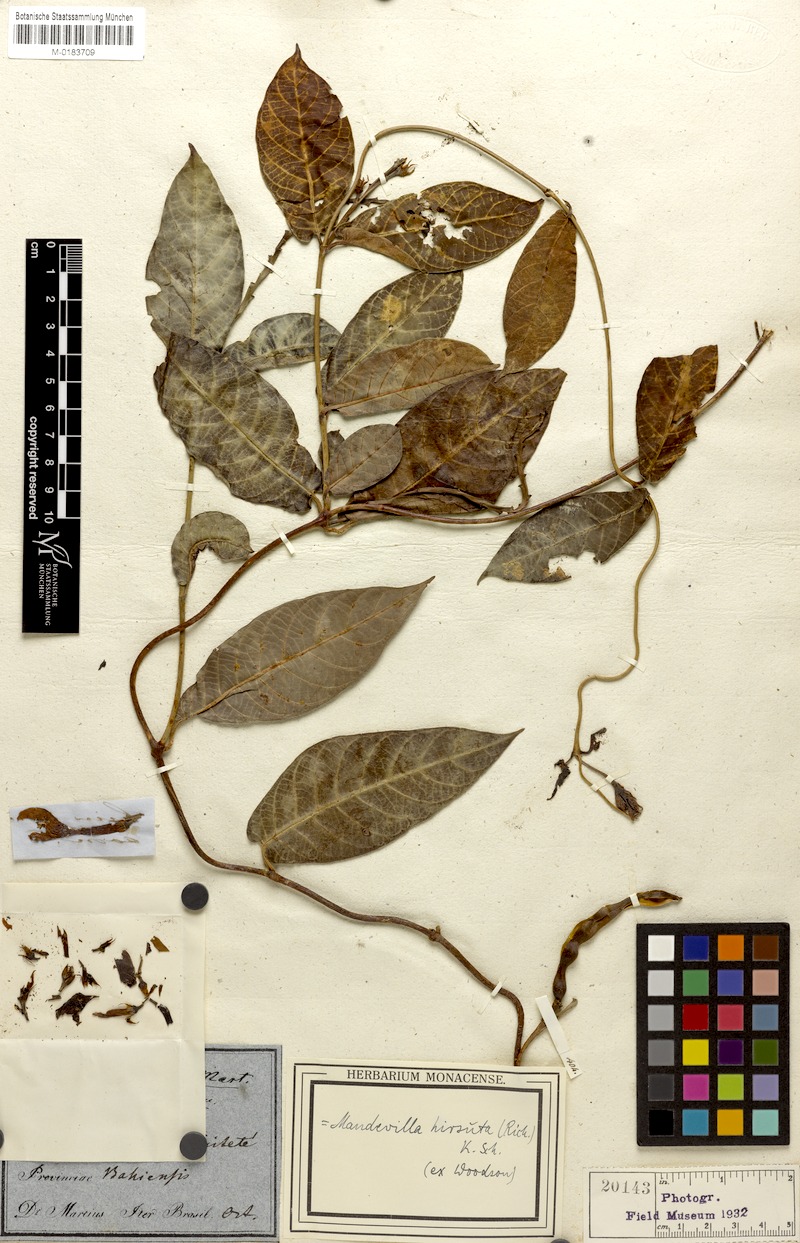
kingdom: Plantae
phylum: Tracheophyta
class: Magnoliopsida
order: Gentianales
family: Apocynaceae
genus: Mandevilla
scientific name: Mandevilla hirsuta
